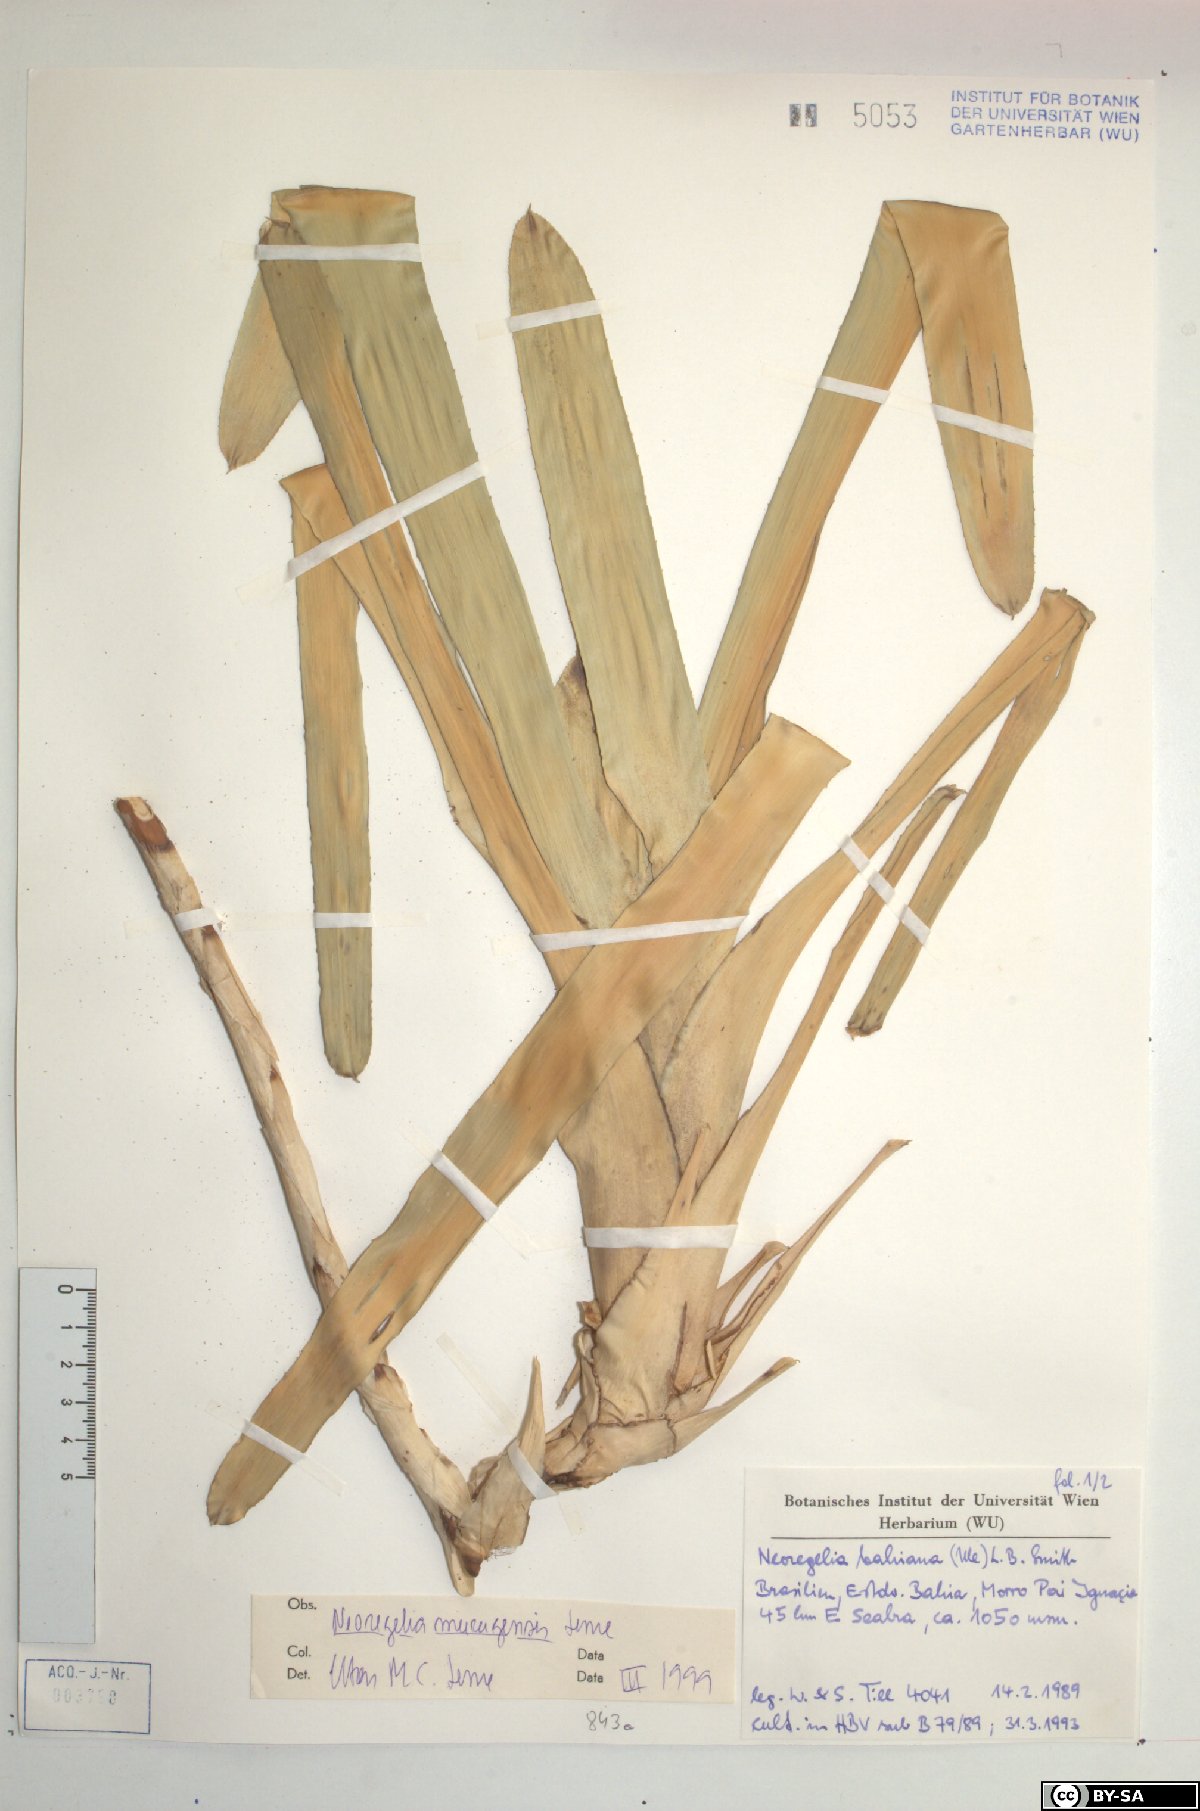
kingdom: Plantae
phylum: Tracheophyta
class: Liliopsida
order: Poales
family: Bromeliaceae
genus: Neoregelia
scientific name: Neoregelia mucugensis
